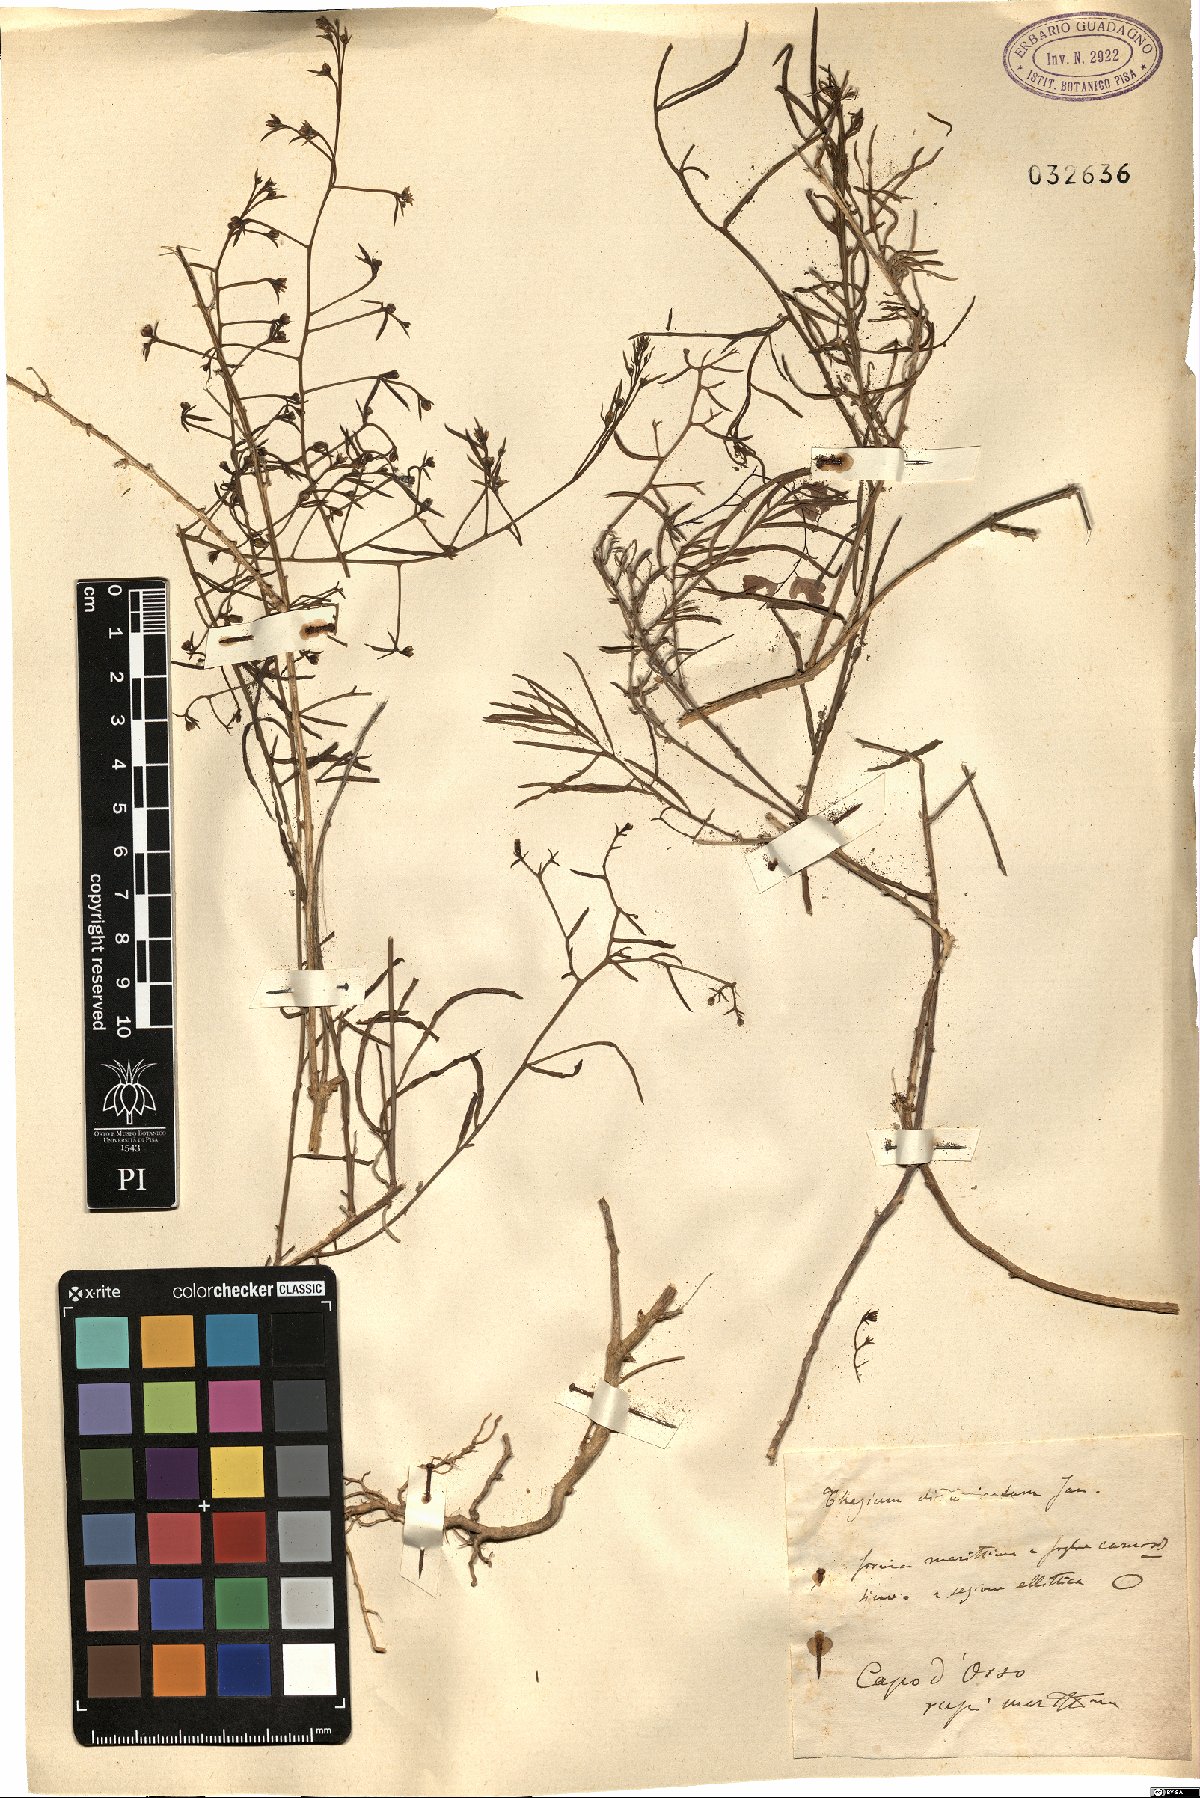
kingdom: Plantae
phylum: Tracheophyta
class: Magnoliopsida
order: Santalales
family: Thesiaceae
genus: Thesium
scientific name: Thesium divaricatum
